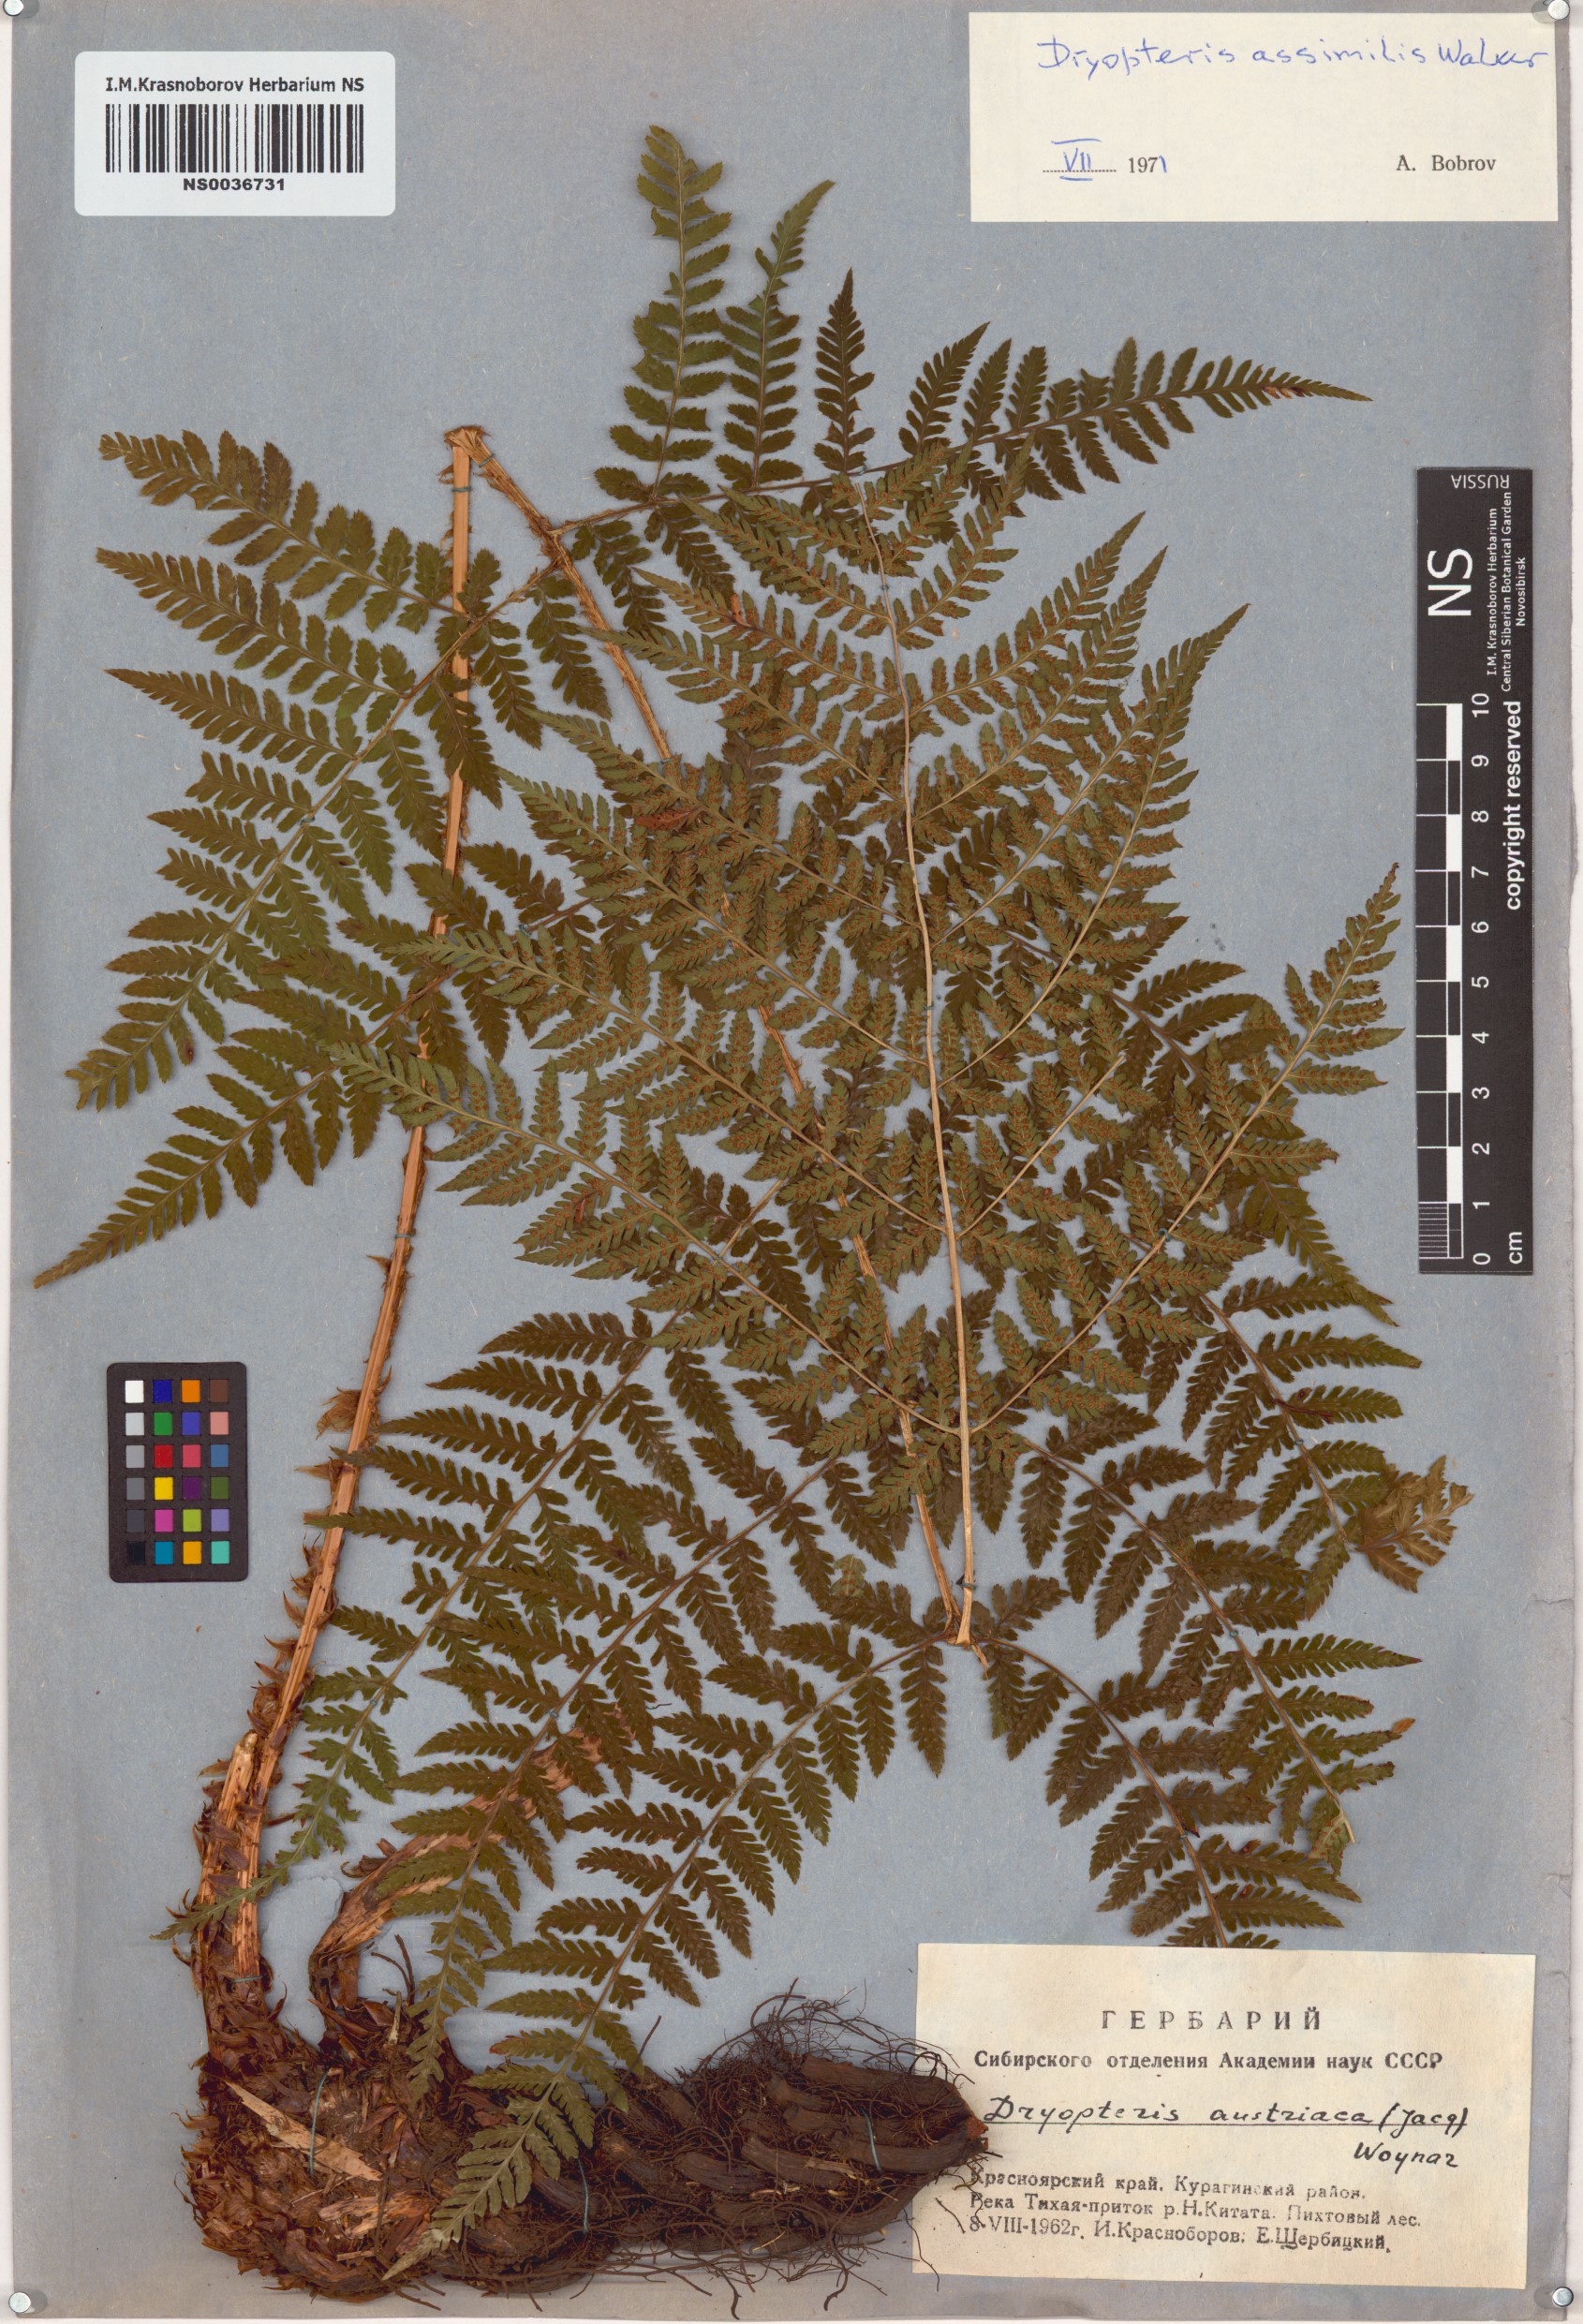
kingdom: Plantae
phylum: Tracheophyta
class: Polypodiopsida
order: Polypodiales
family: Dryopteridaceae
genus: Dryopteris
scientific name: Dryopteris expansa
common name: Northern buckler fern
